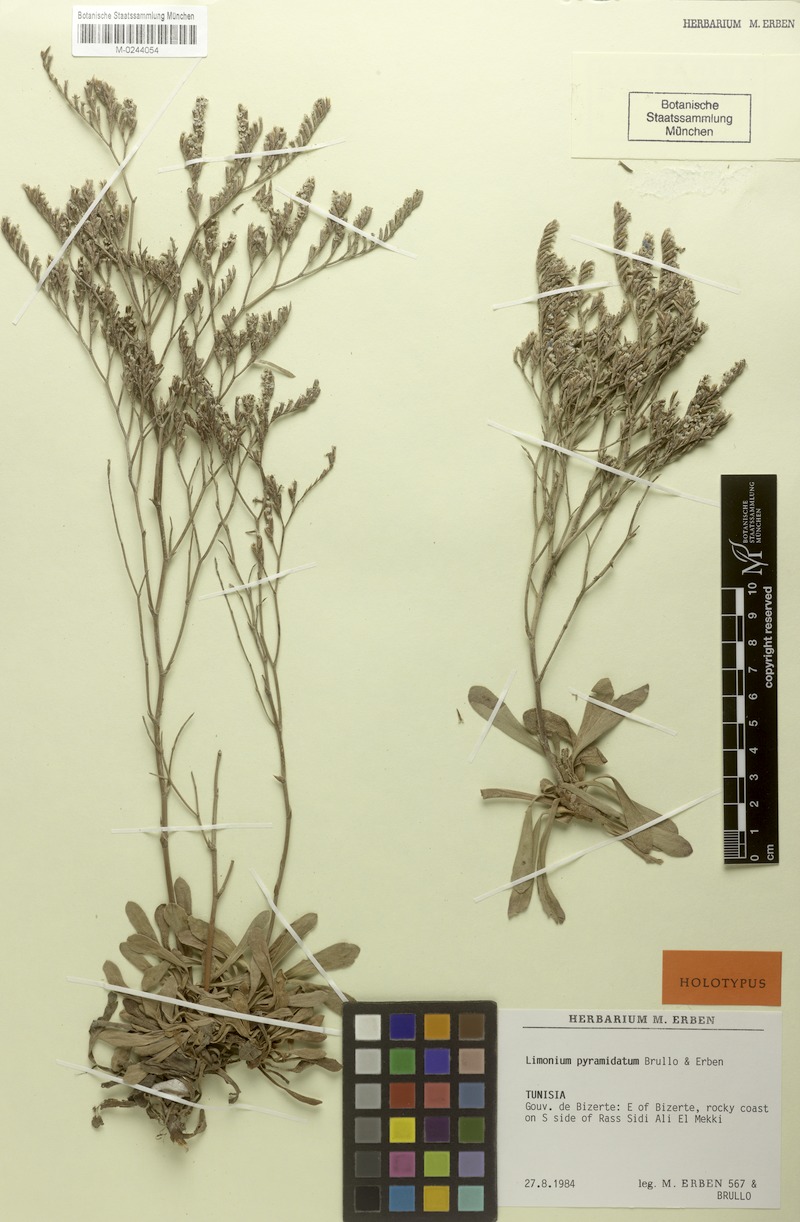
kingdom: Plantae
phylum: Tracheophyta
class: Magnoliopsida
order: Caryophyllales
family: Plumbaginaceae
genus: Limonium
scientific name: Limonium pyramidatum
